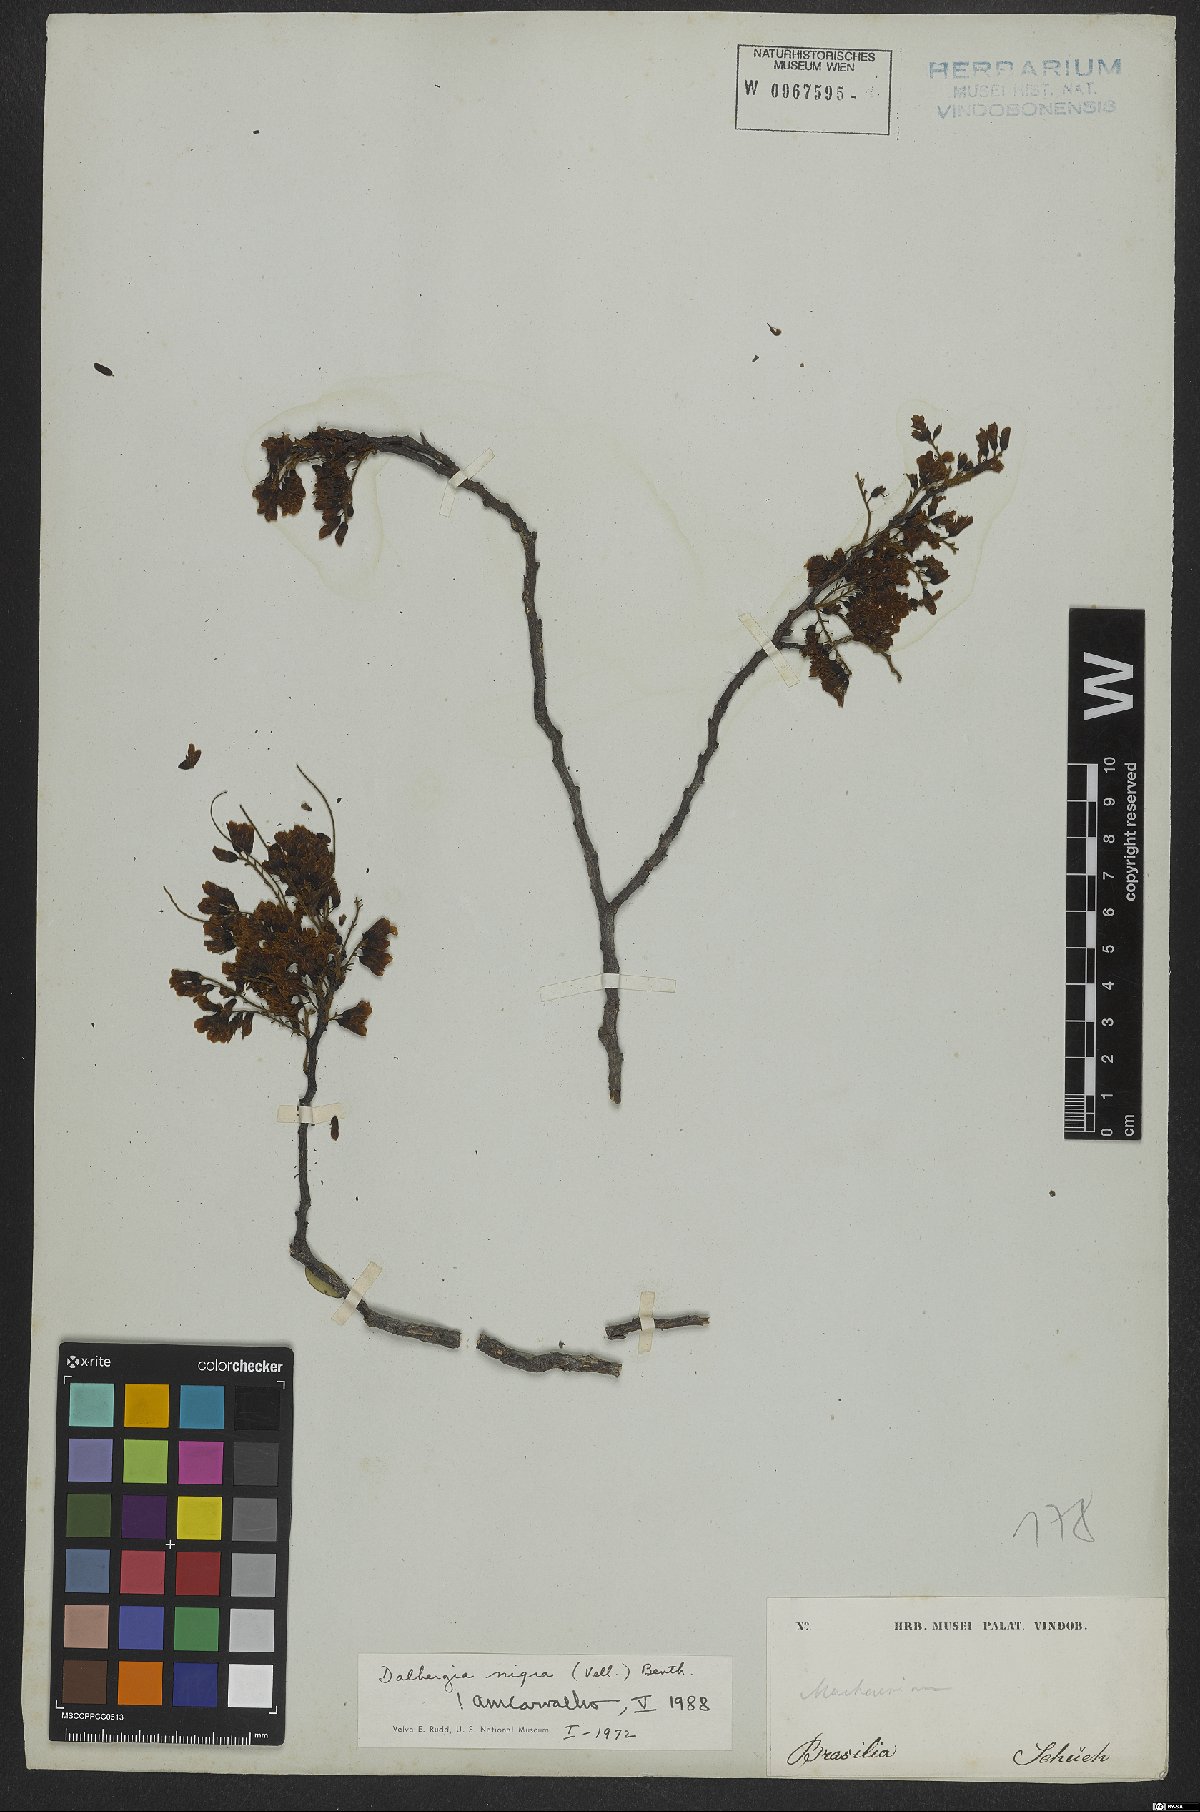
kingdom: Plantae
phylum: Tracheophyta
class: Magnoliopsida
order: Fabales
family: Fabaceae
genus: Dalbergia
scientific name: Dalbergia nigra
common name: Bahia rosewood
